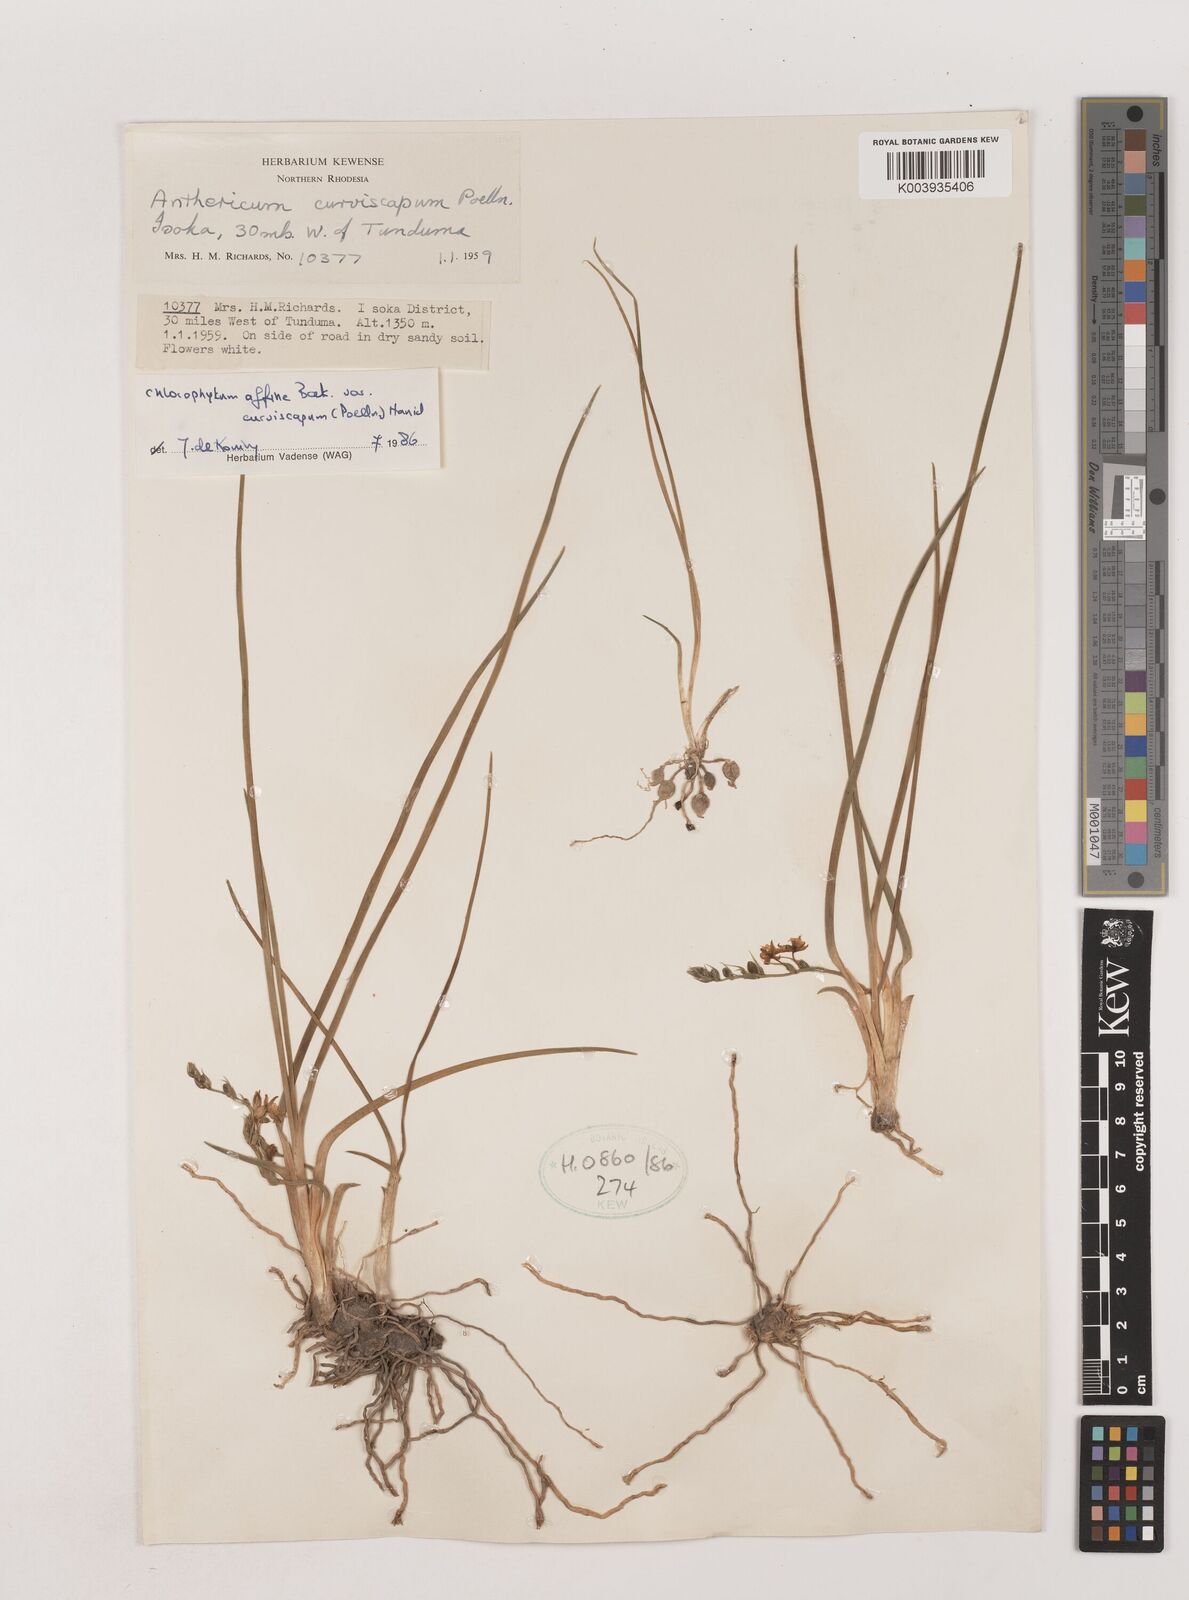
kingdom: Plantae
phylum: Tracheophyta
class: Liliopsida
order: Asparagales
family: Asparagaceae
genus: Chlorophytum
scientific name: Chlorophytum tordense
